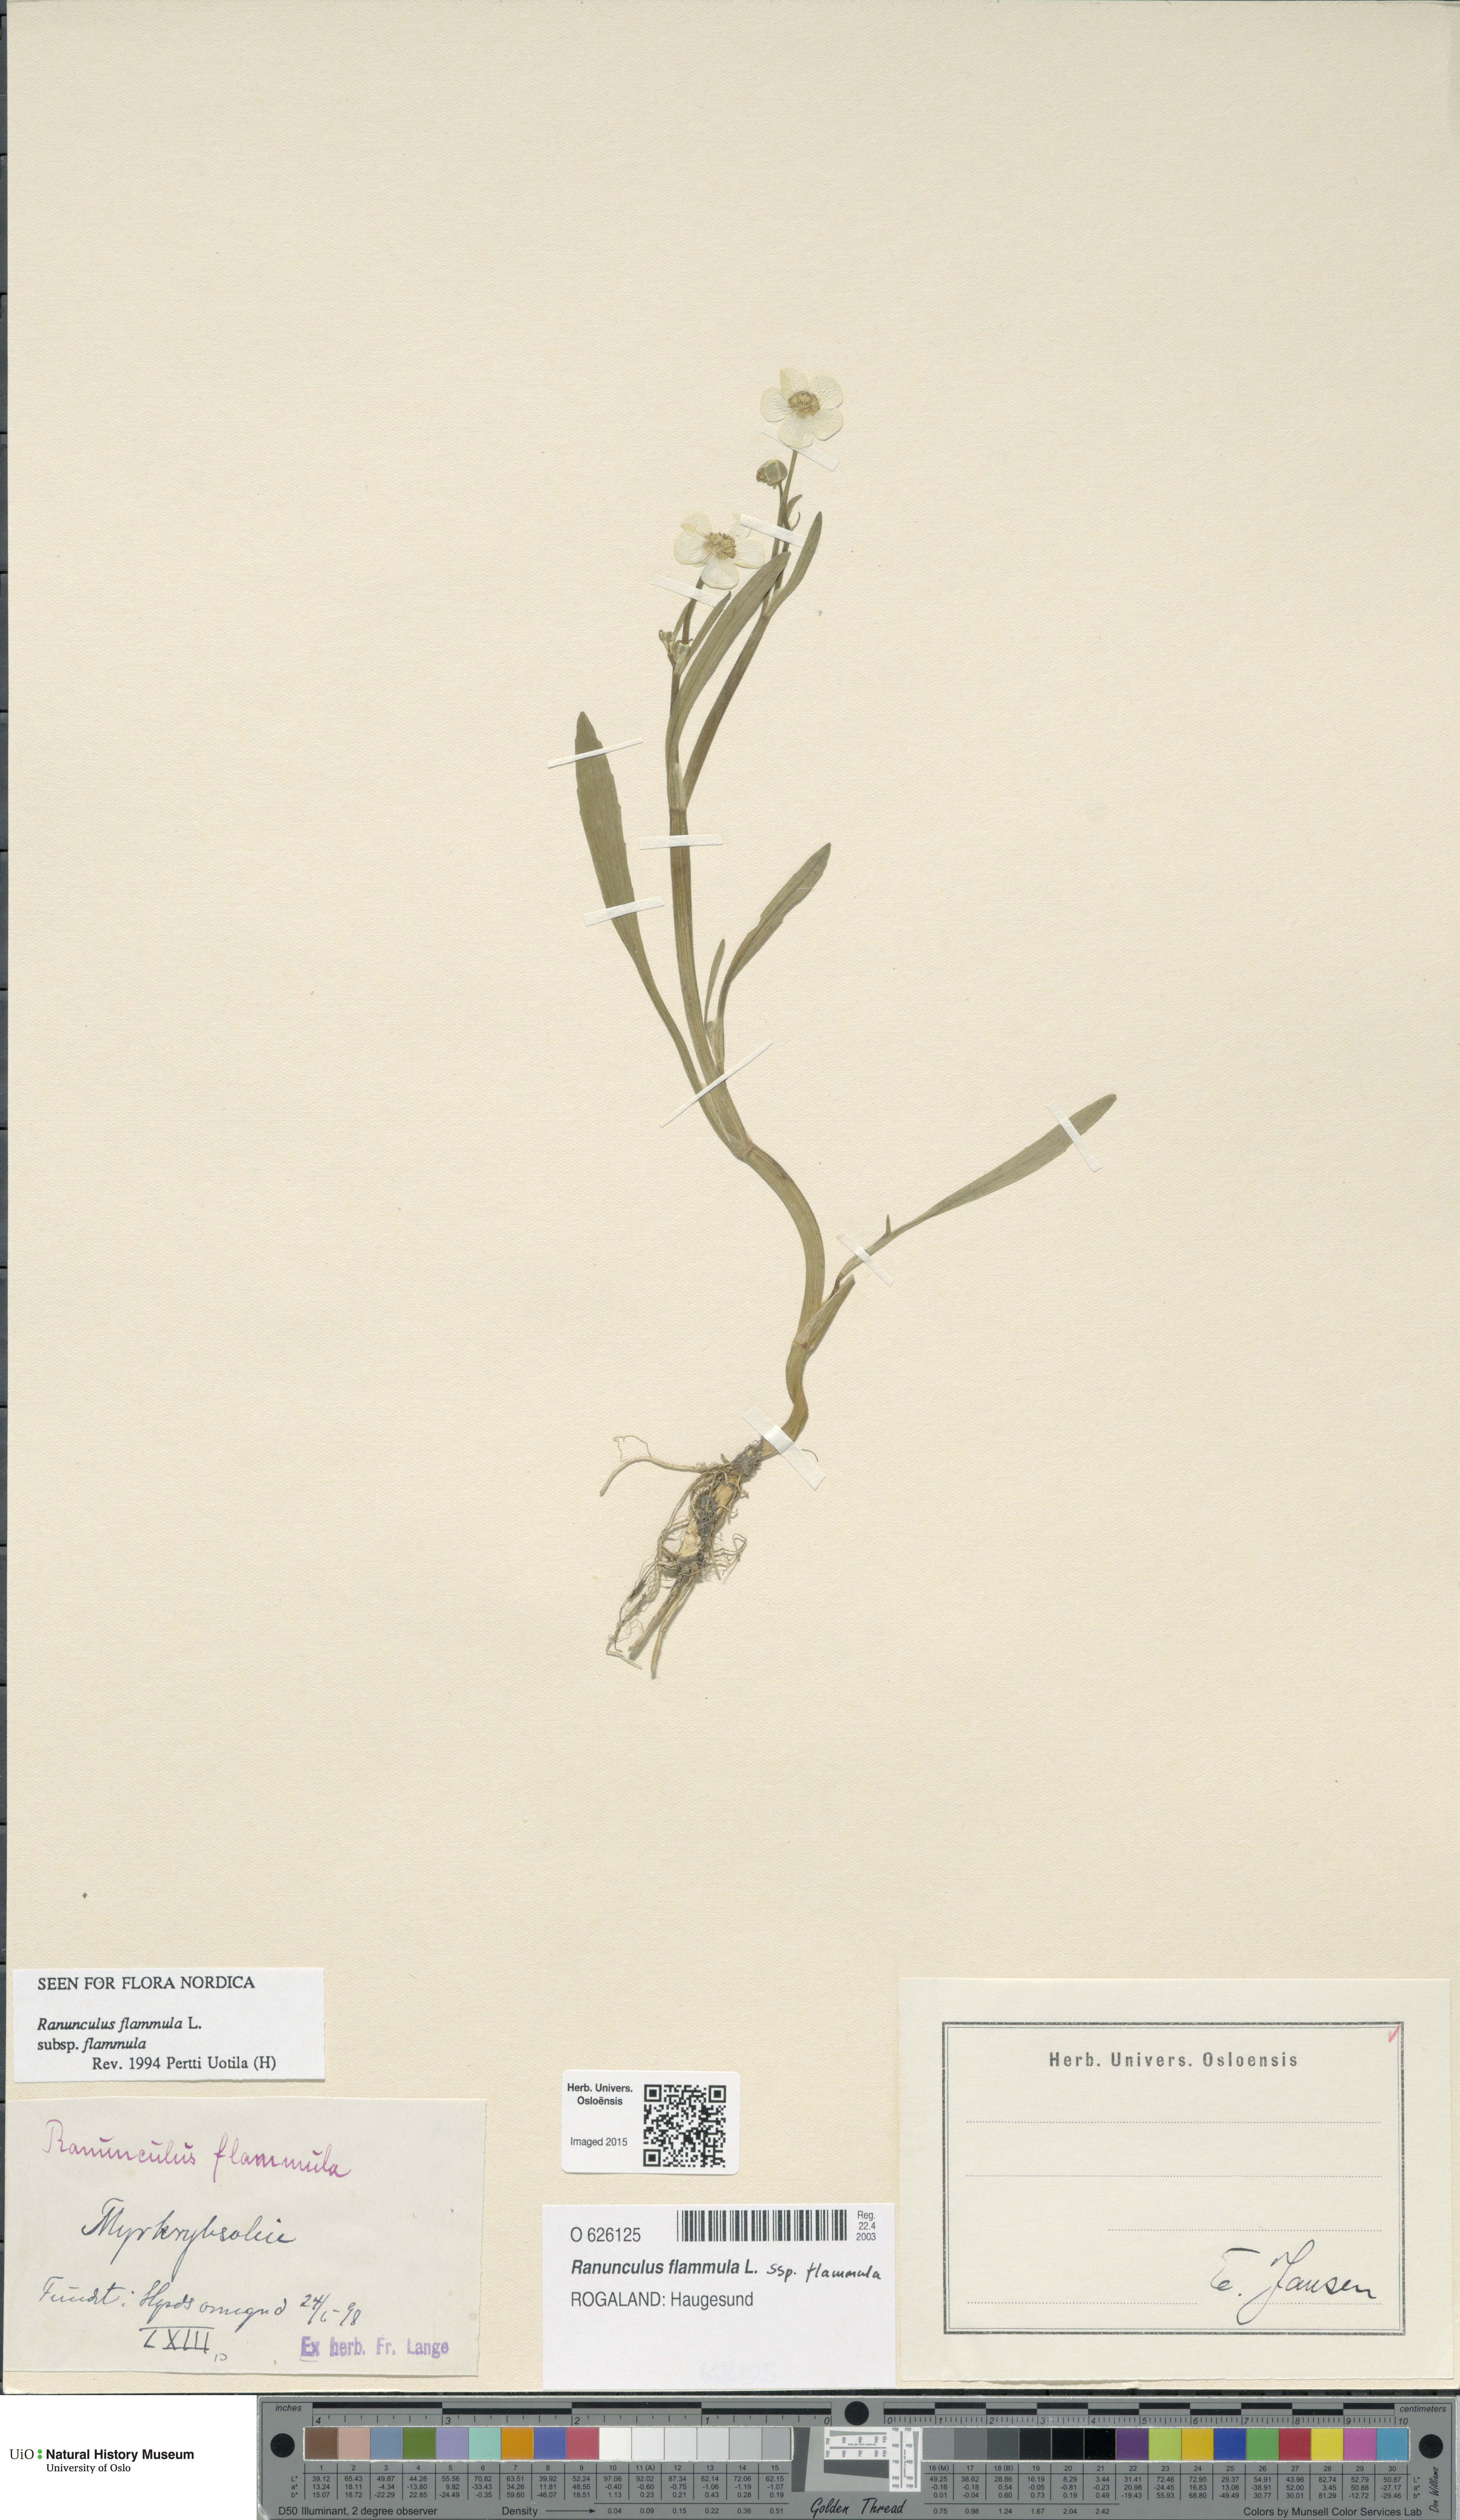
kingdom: Plantae
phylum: Tracheophyta
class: Magnoliopsida
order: Ranunculales
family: Ranunculaceae
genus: Ranunculus
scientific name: Ranunculus flammula
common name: Lesser spearwort
